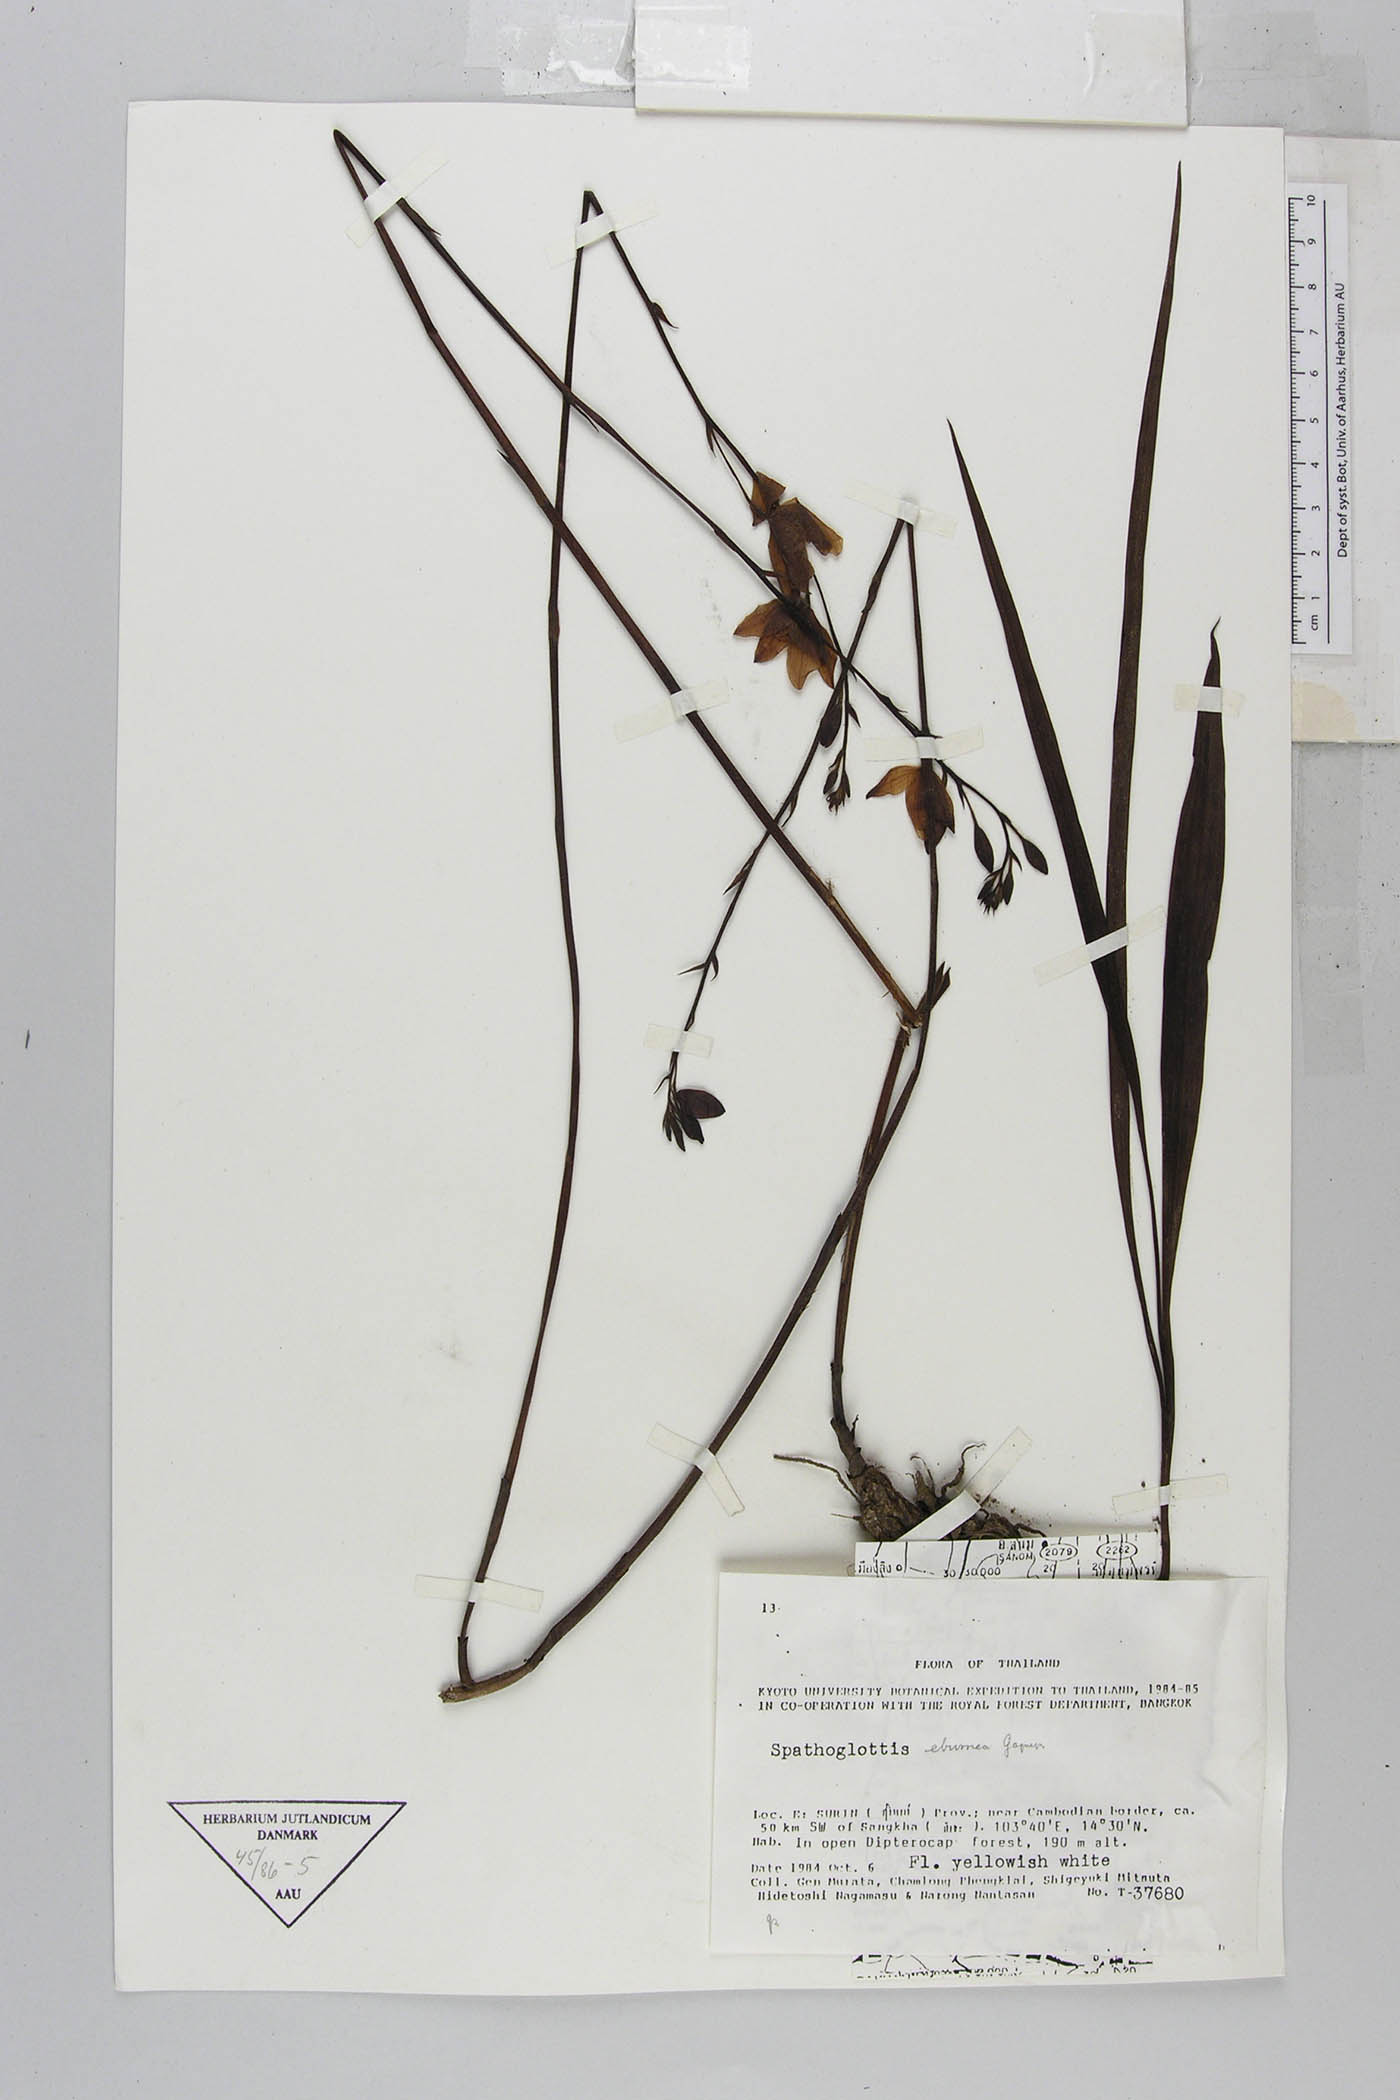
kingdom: Plantae
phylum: Tracheophyta
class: Liliopsida
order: Asparagales
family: Orchidaceae
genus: Spathoglottis
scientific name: Spathoglottis eburnea
